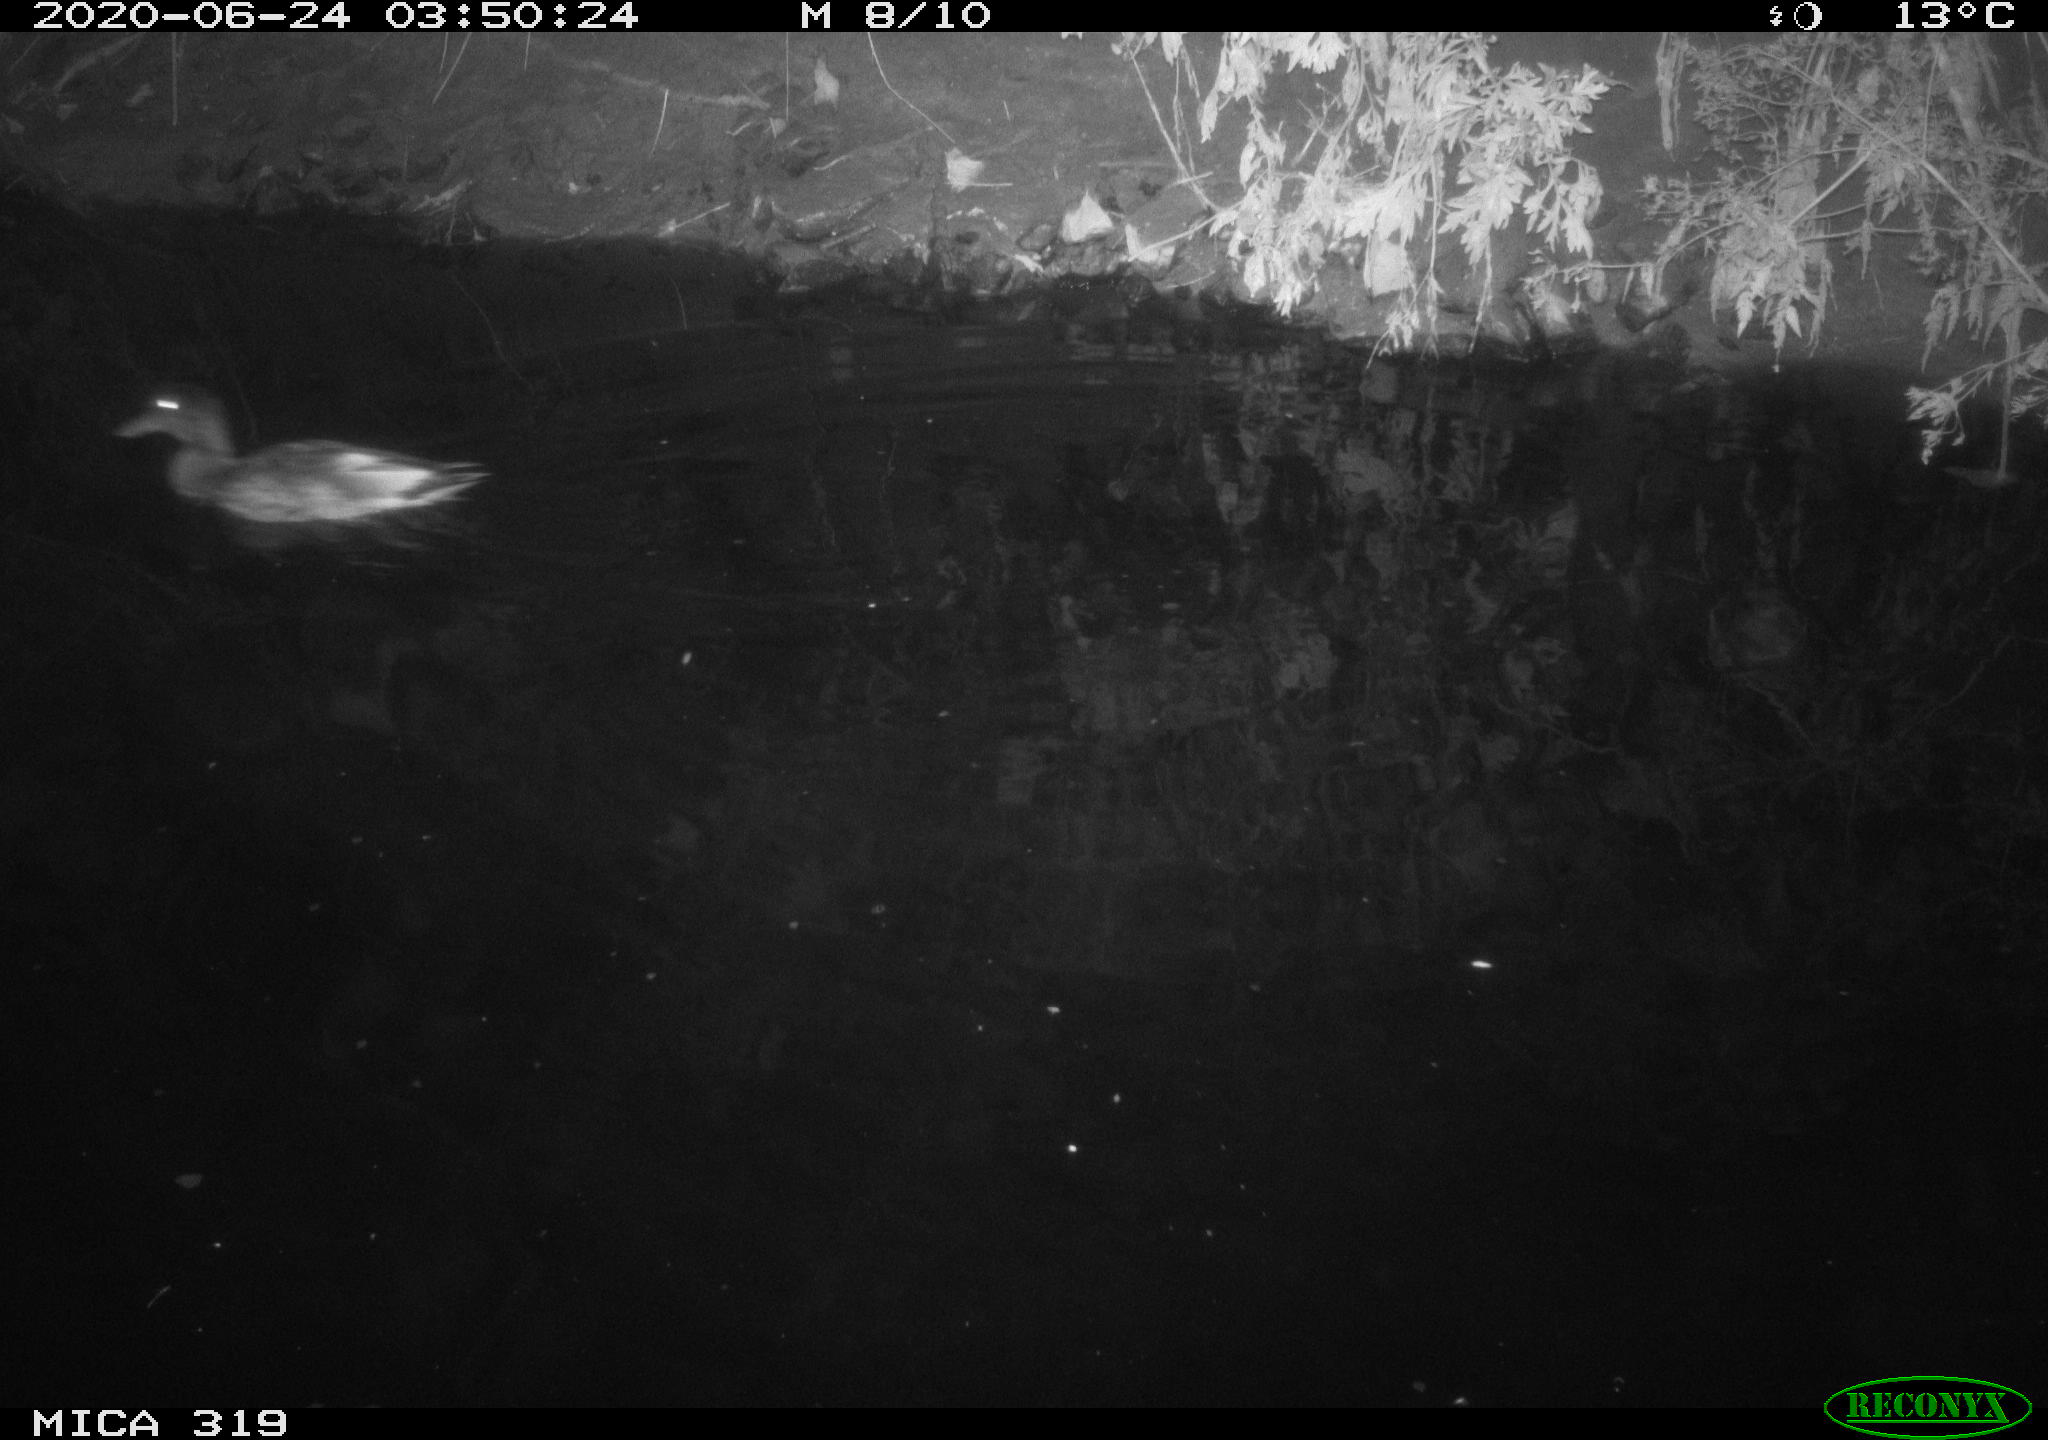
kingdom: Animalia
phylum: Chordata
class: Aves
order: Anseriformes
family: Anatidae
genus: Anas
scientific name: Anas platyrhynchos
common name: Mallard
